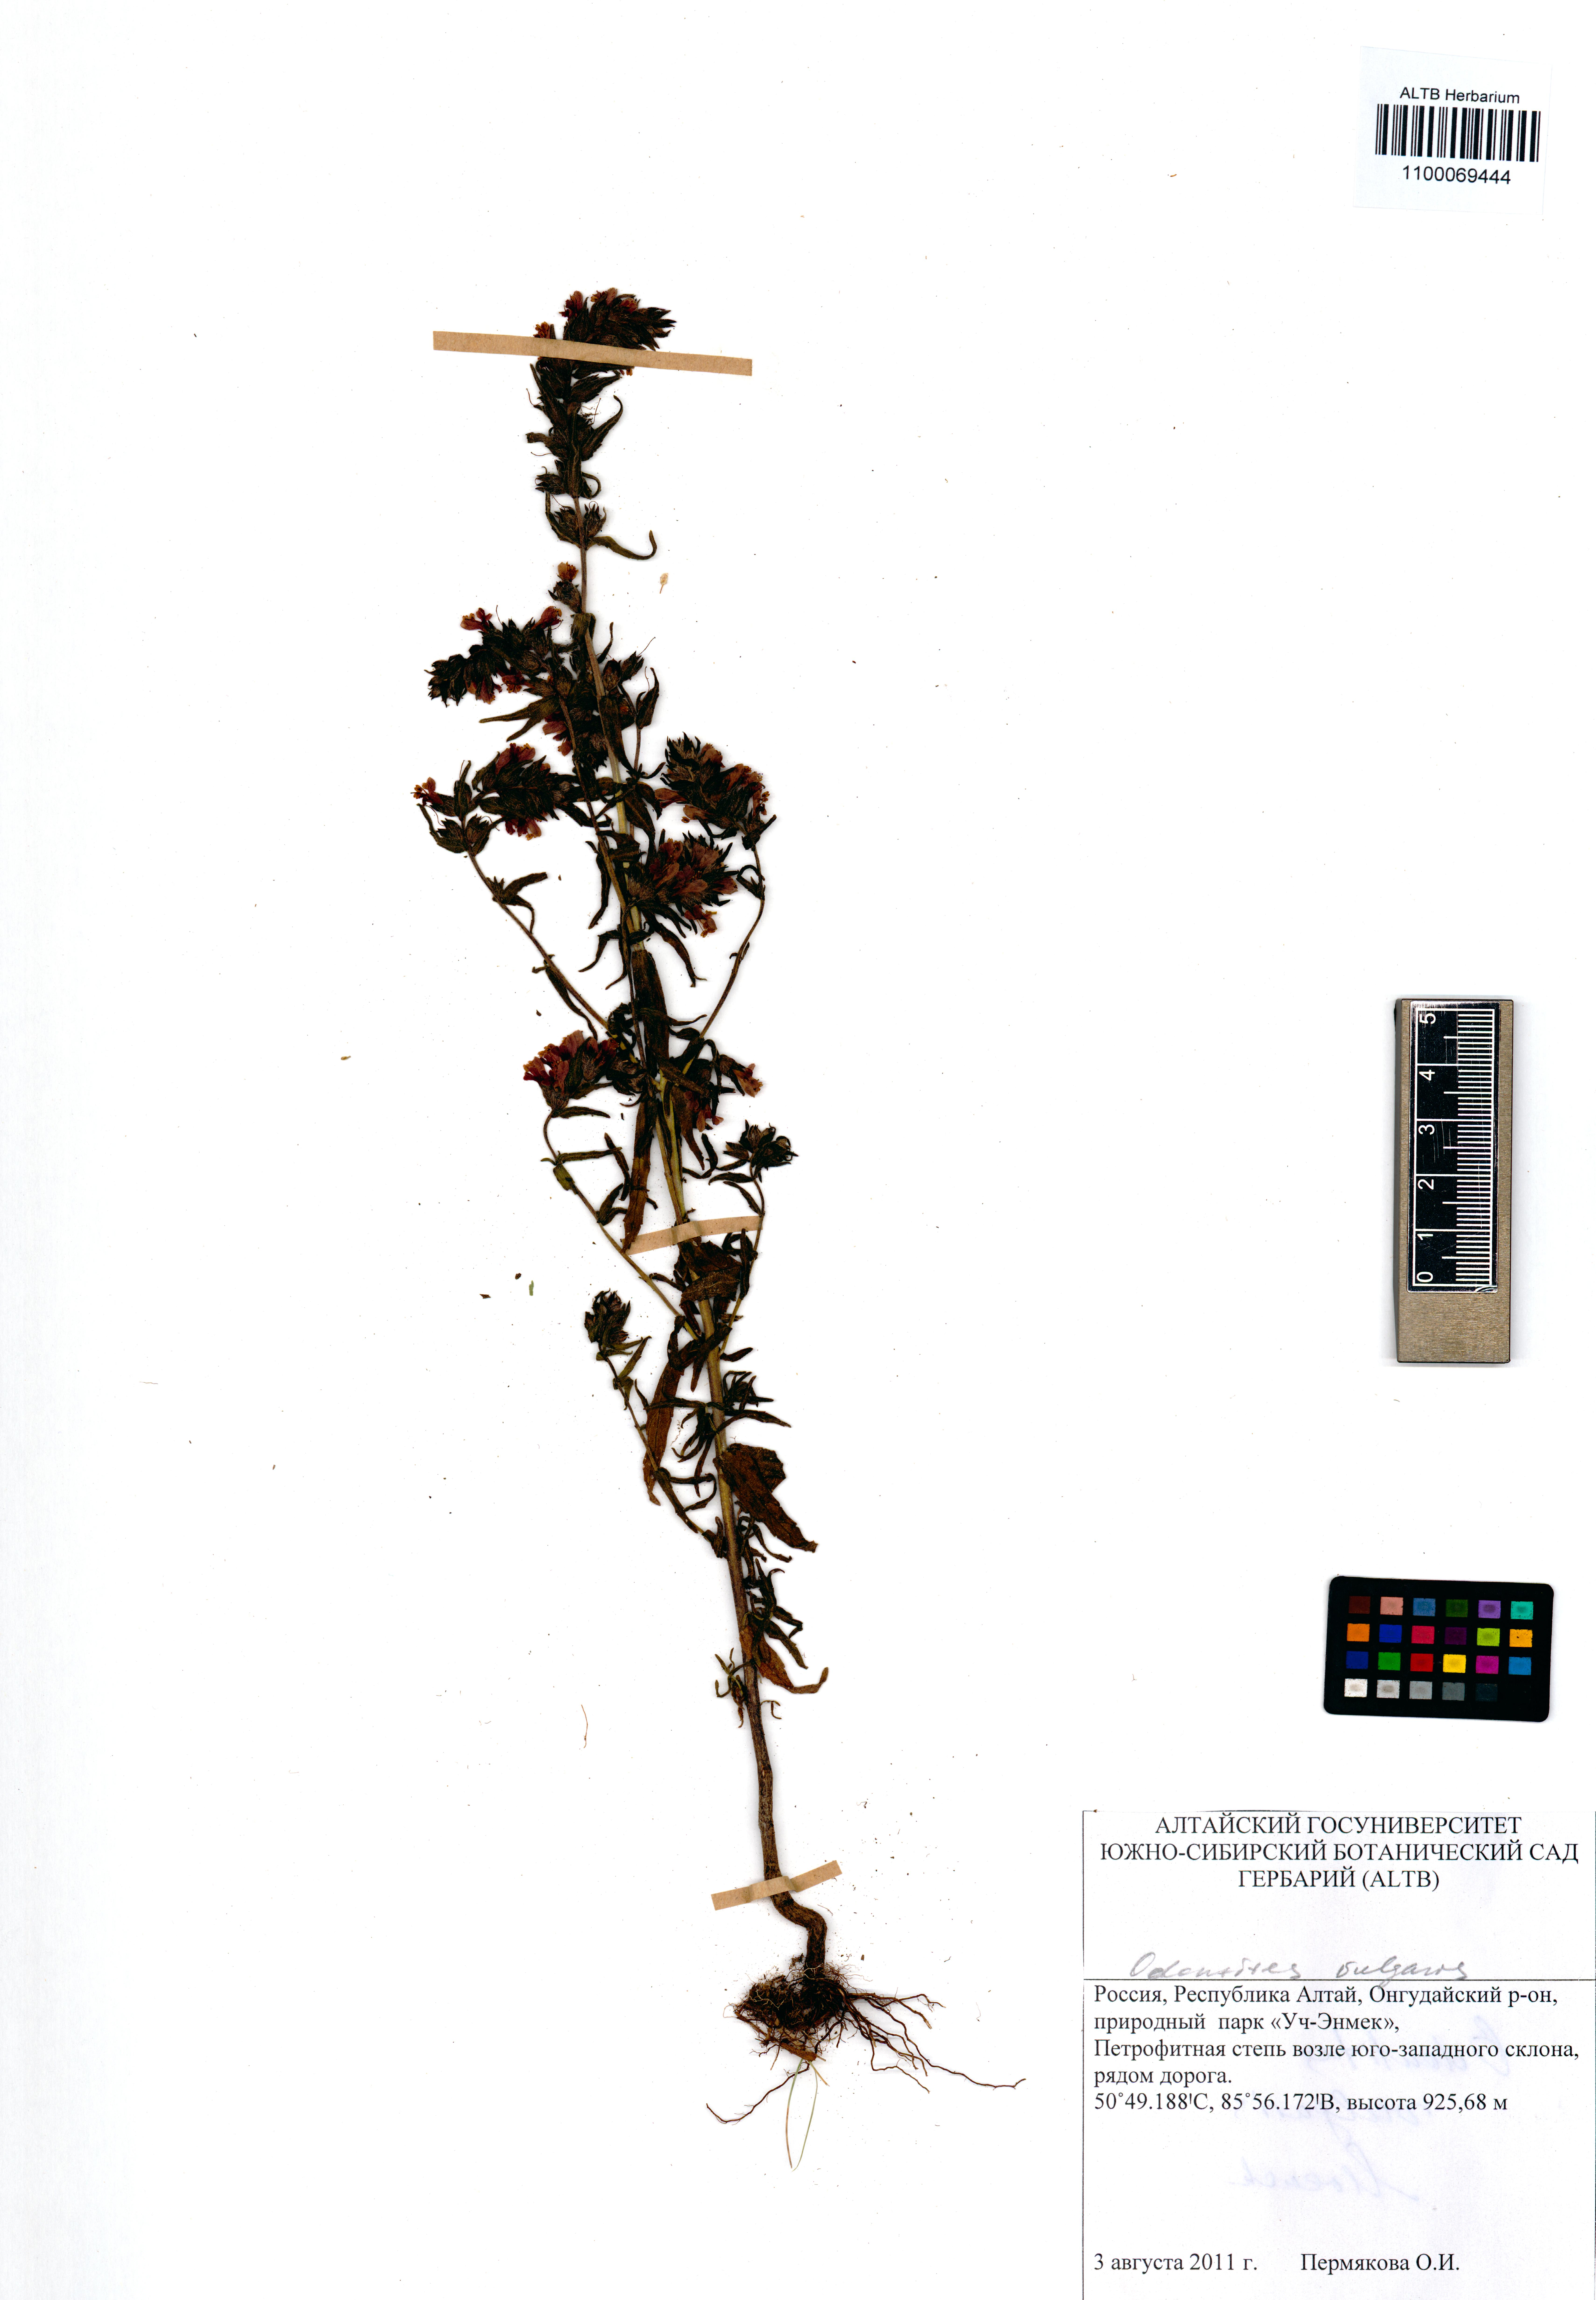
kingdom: Plantae
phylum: Tracheophyta
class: Magnoliopsida
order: Lamiales
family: Orobanchaceae
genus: Odontites
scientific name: Odontites vulgaris
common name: Broomrape
